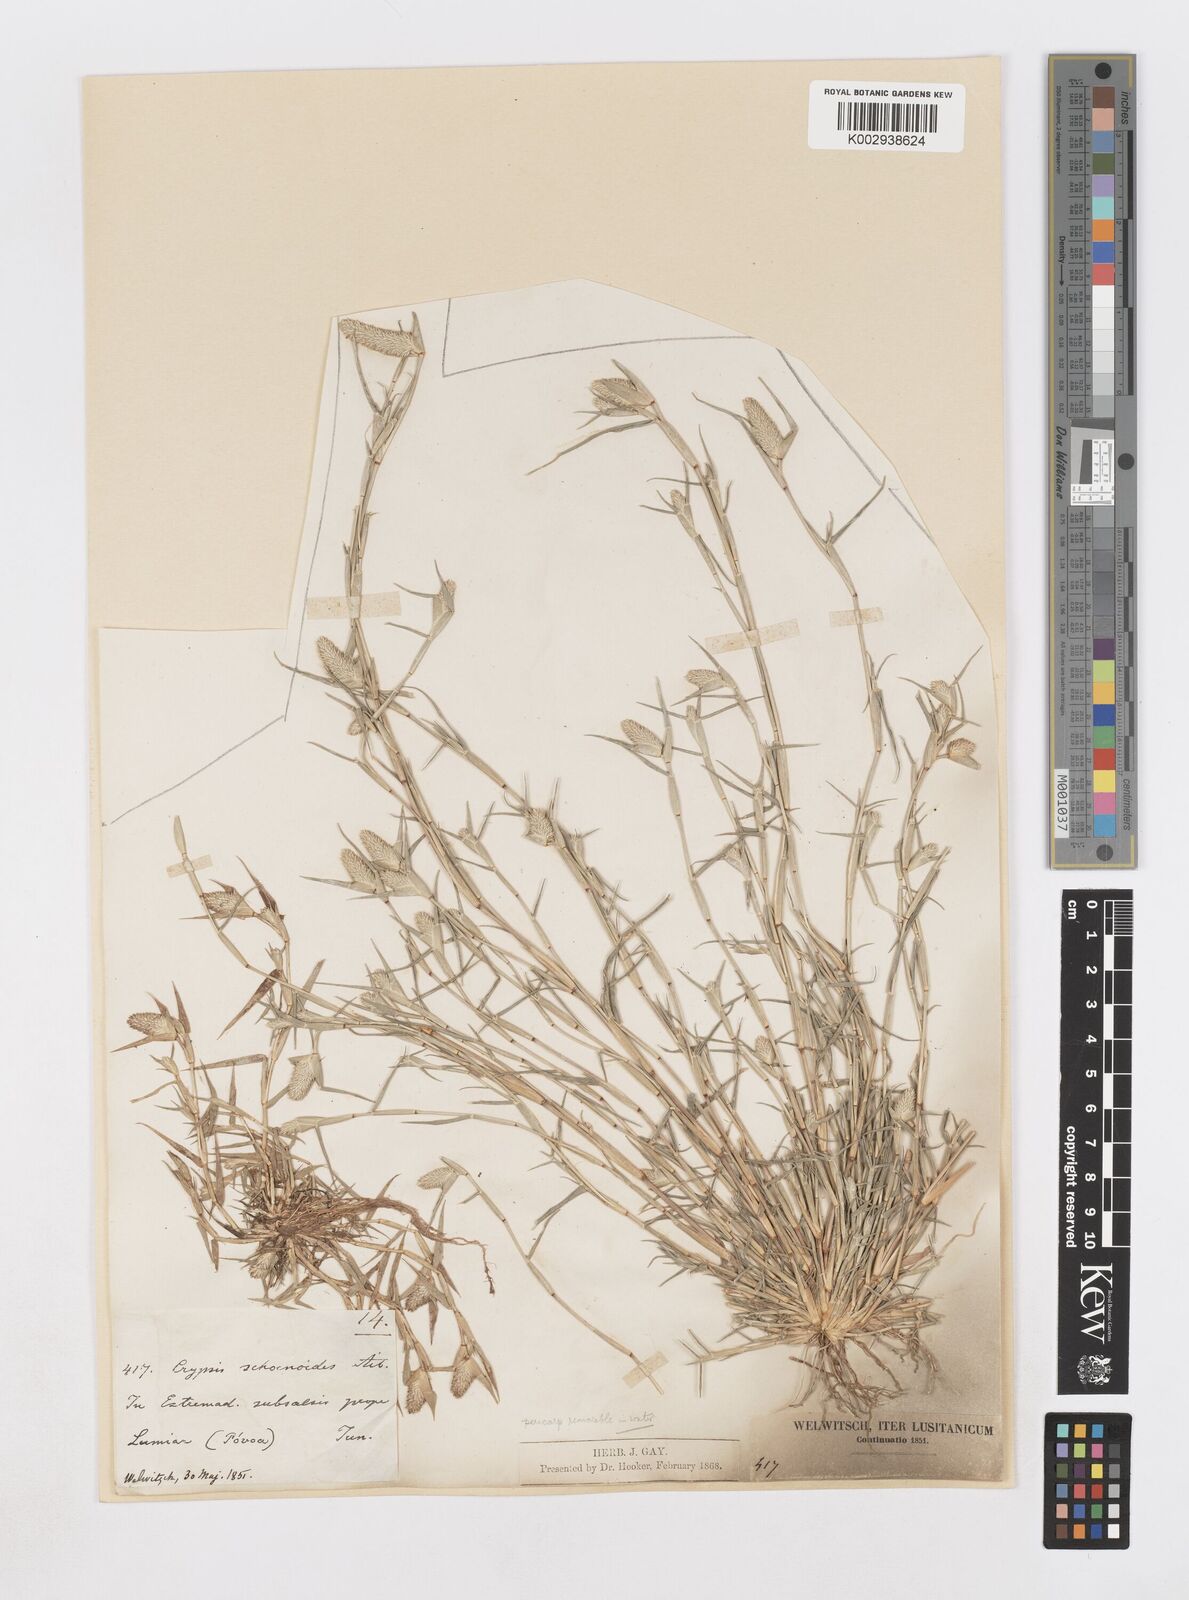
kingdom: Plantae
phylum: Tracheophyta
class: Liliopsida
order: Poales
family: Poaceae
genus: Sporobolus
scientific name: Sporobolus schoenoides
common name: Rush-like timothy
